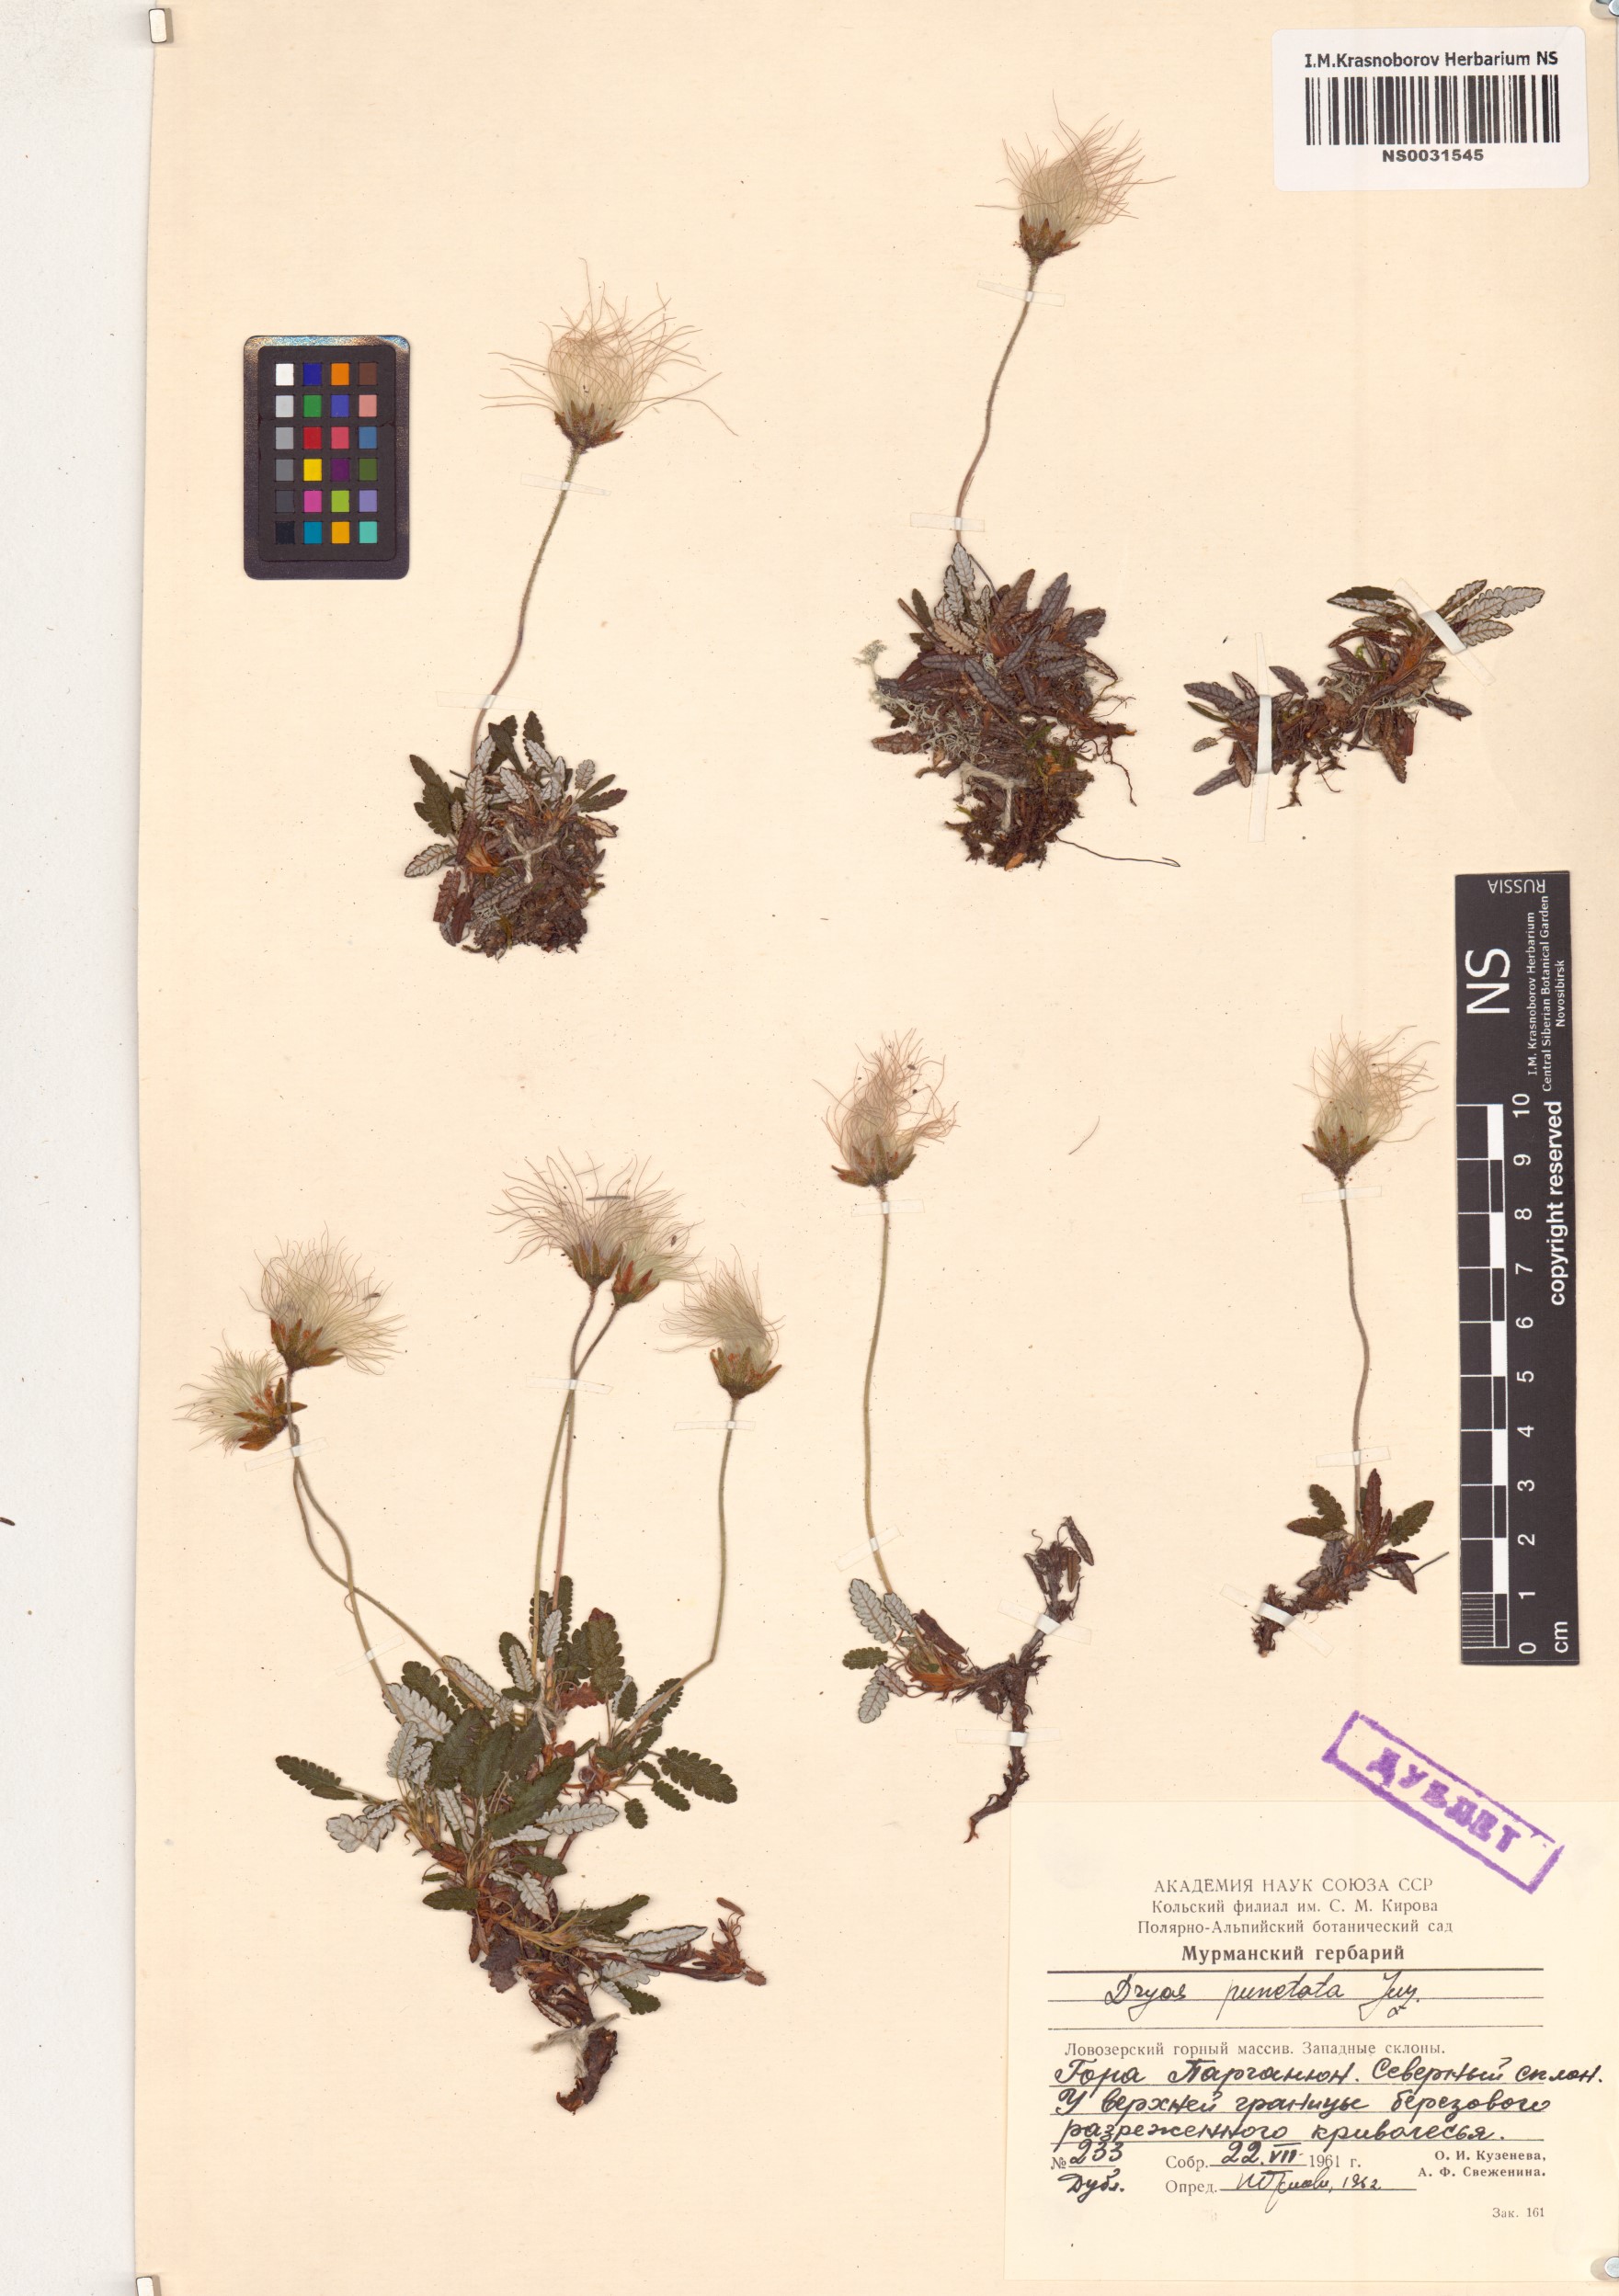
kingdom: Plantae
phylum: Tracheophyta
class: Magnoliopsida
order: Rosales
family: Rosaceae
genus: Dryas
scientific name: Dryas octopetala
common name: Eight-petal mountain-avens
